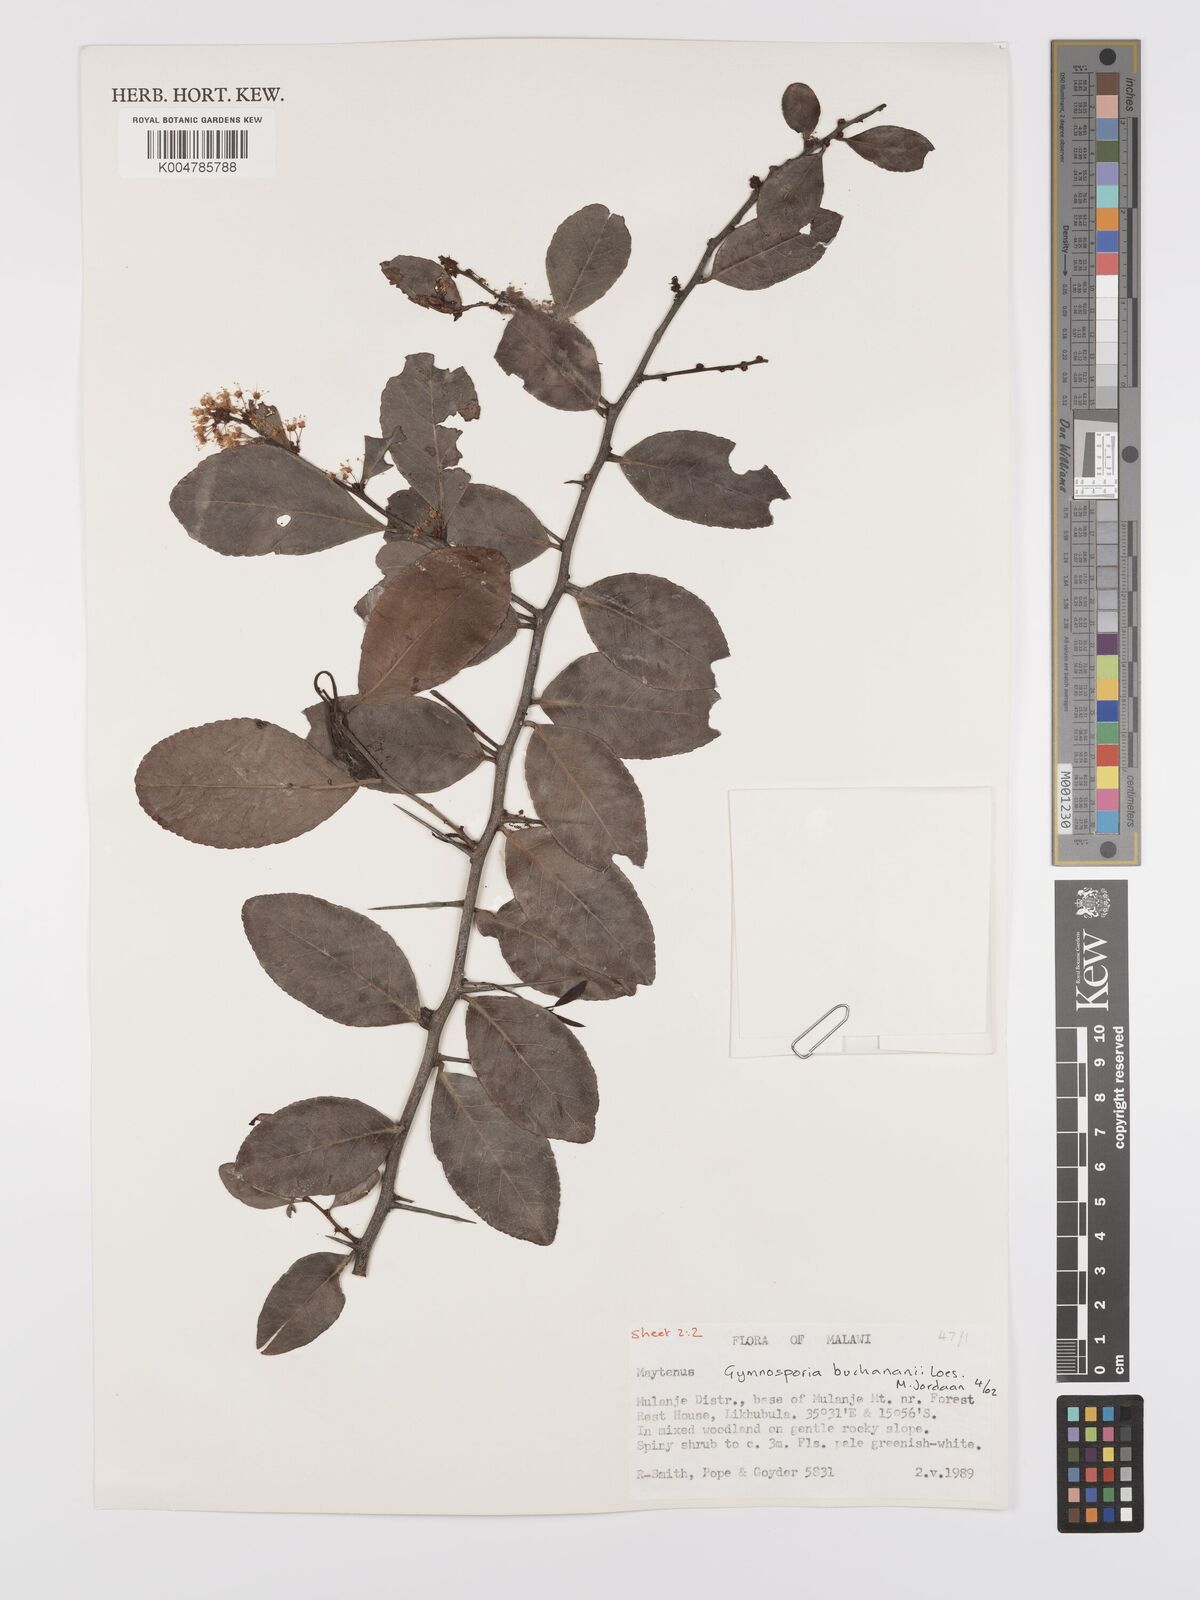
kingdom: Plantae
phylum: Tracheophyta
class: Magnoliopsida
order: Celastrales
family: Celastraceae
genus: Gymnosporia
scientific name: Gymnosporia buchananii
